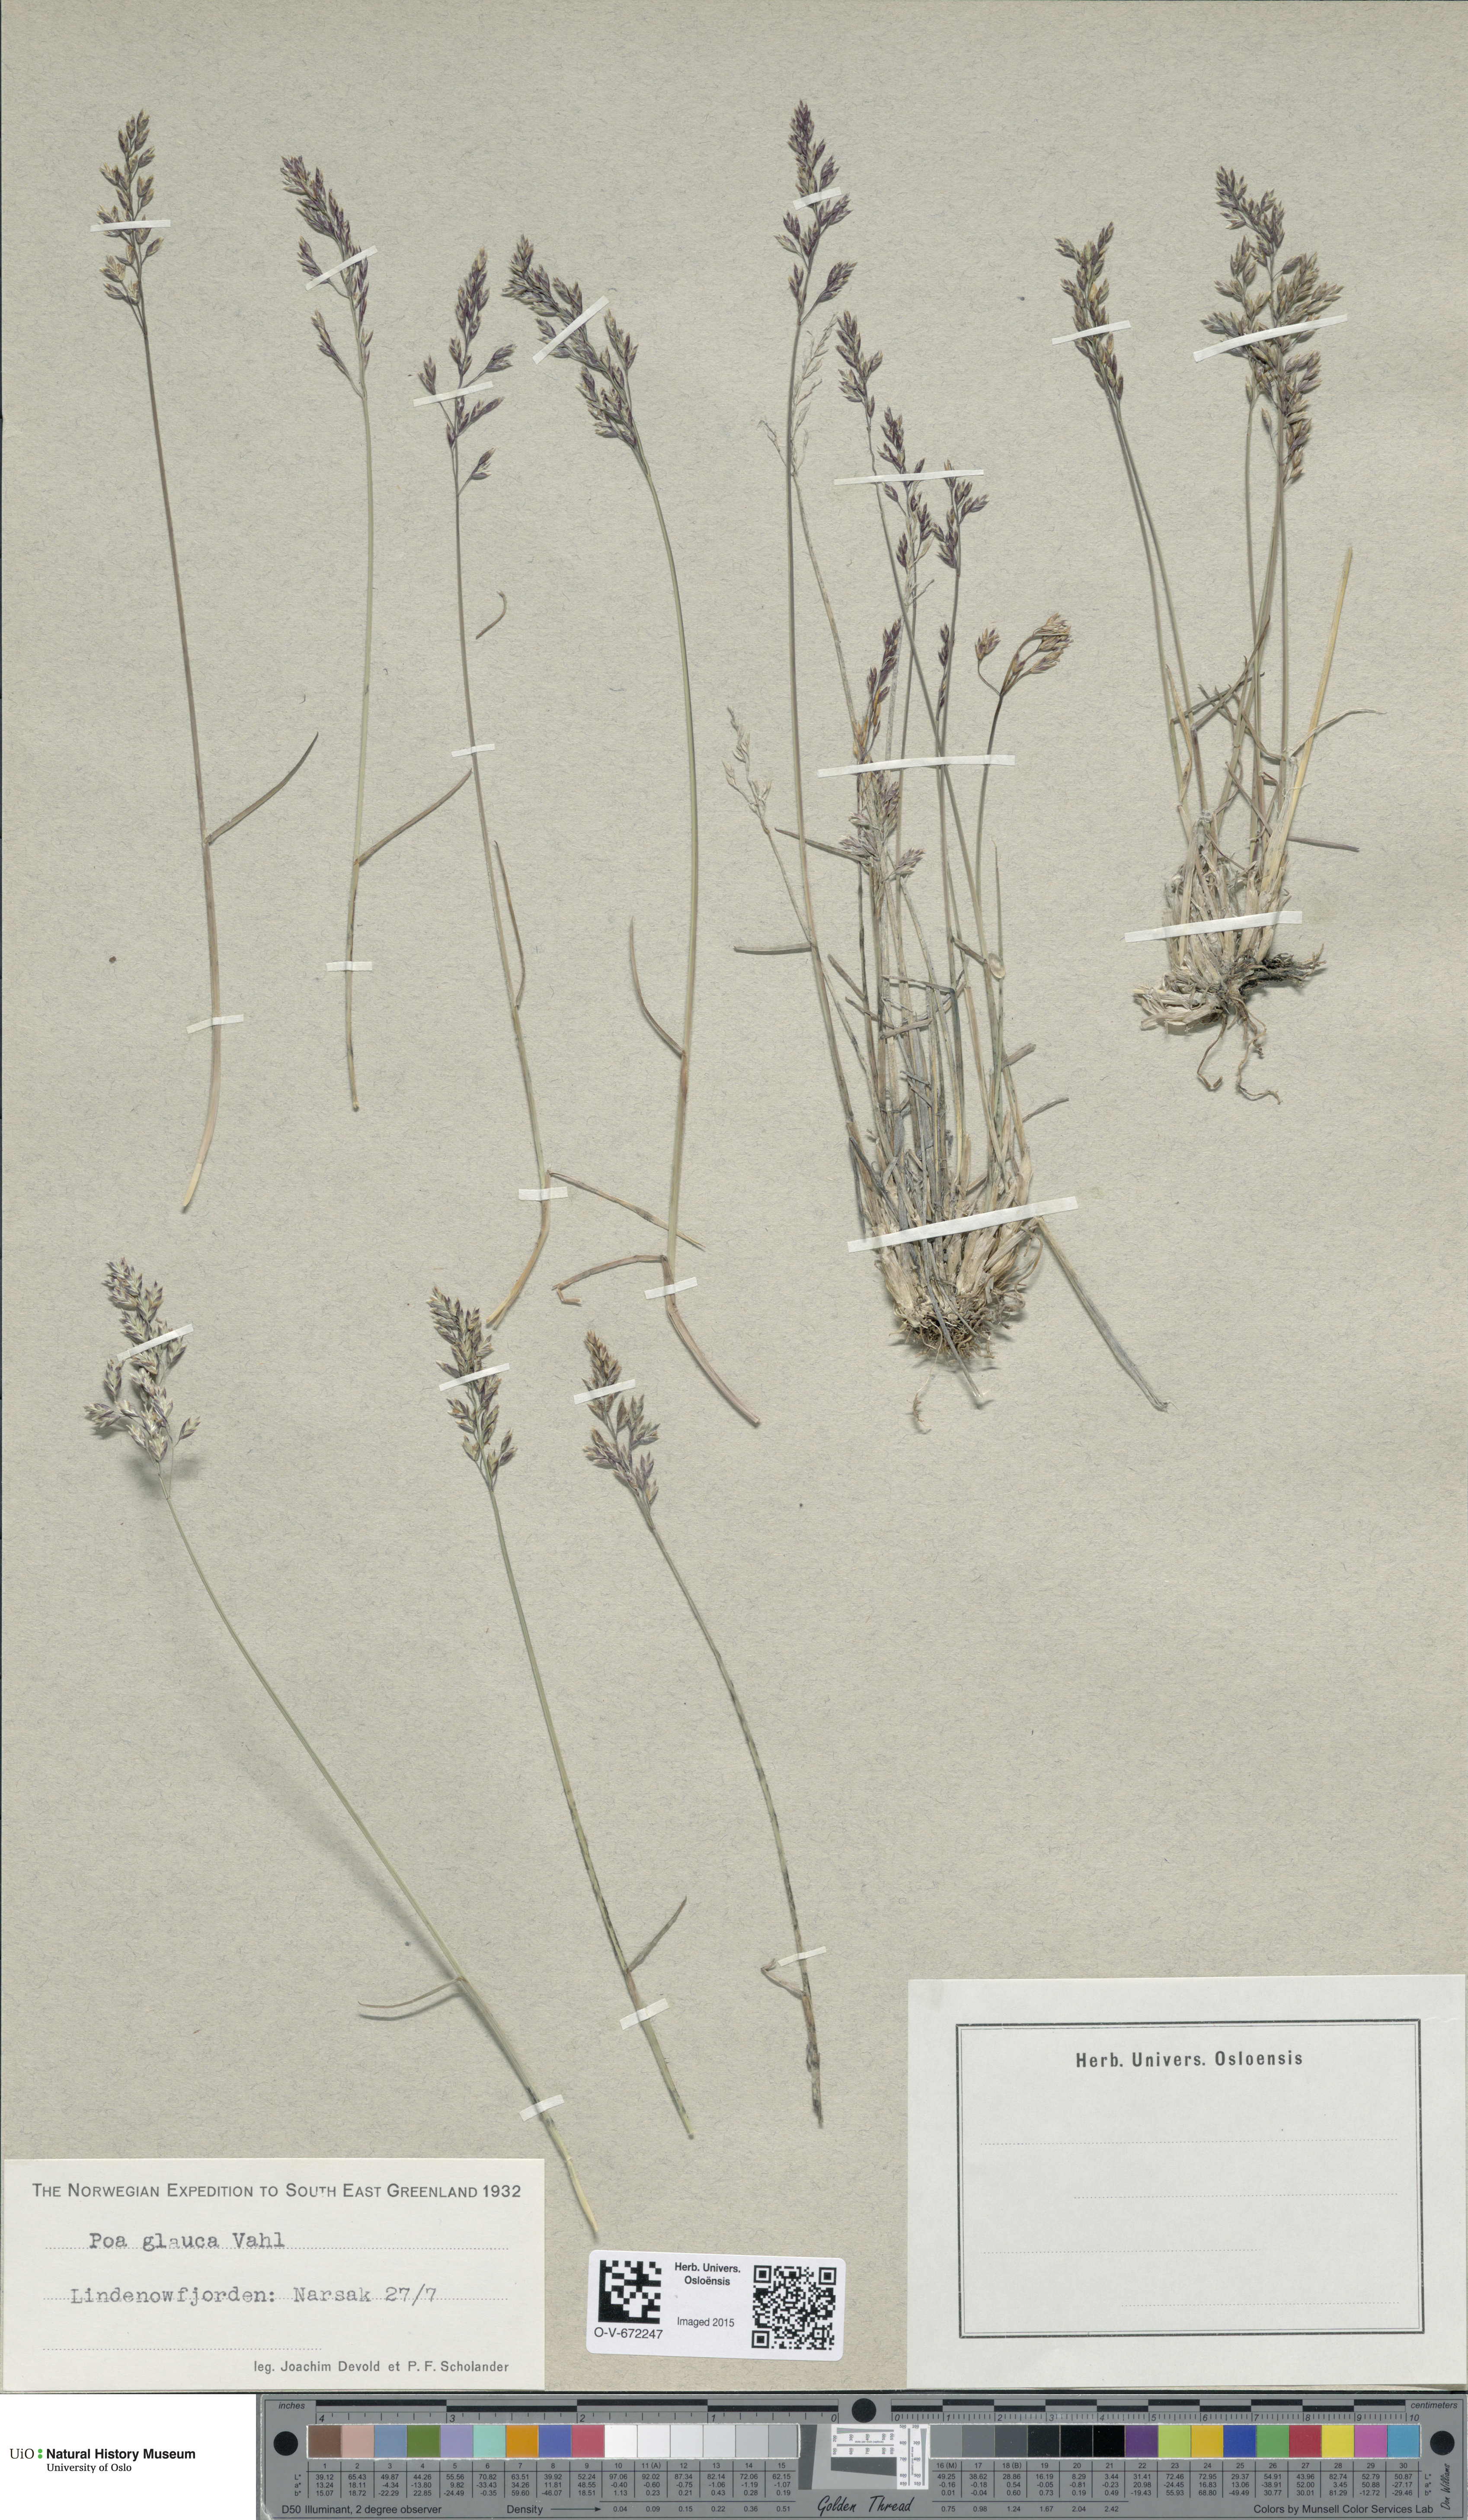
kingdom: Plantae
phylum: Tracheophyta
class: Liliopsida
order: Poales
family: Poaceae
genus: Poa
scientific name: Poa glauca
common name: Glaucous bluegrass
